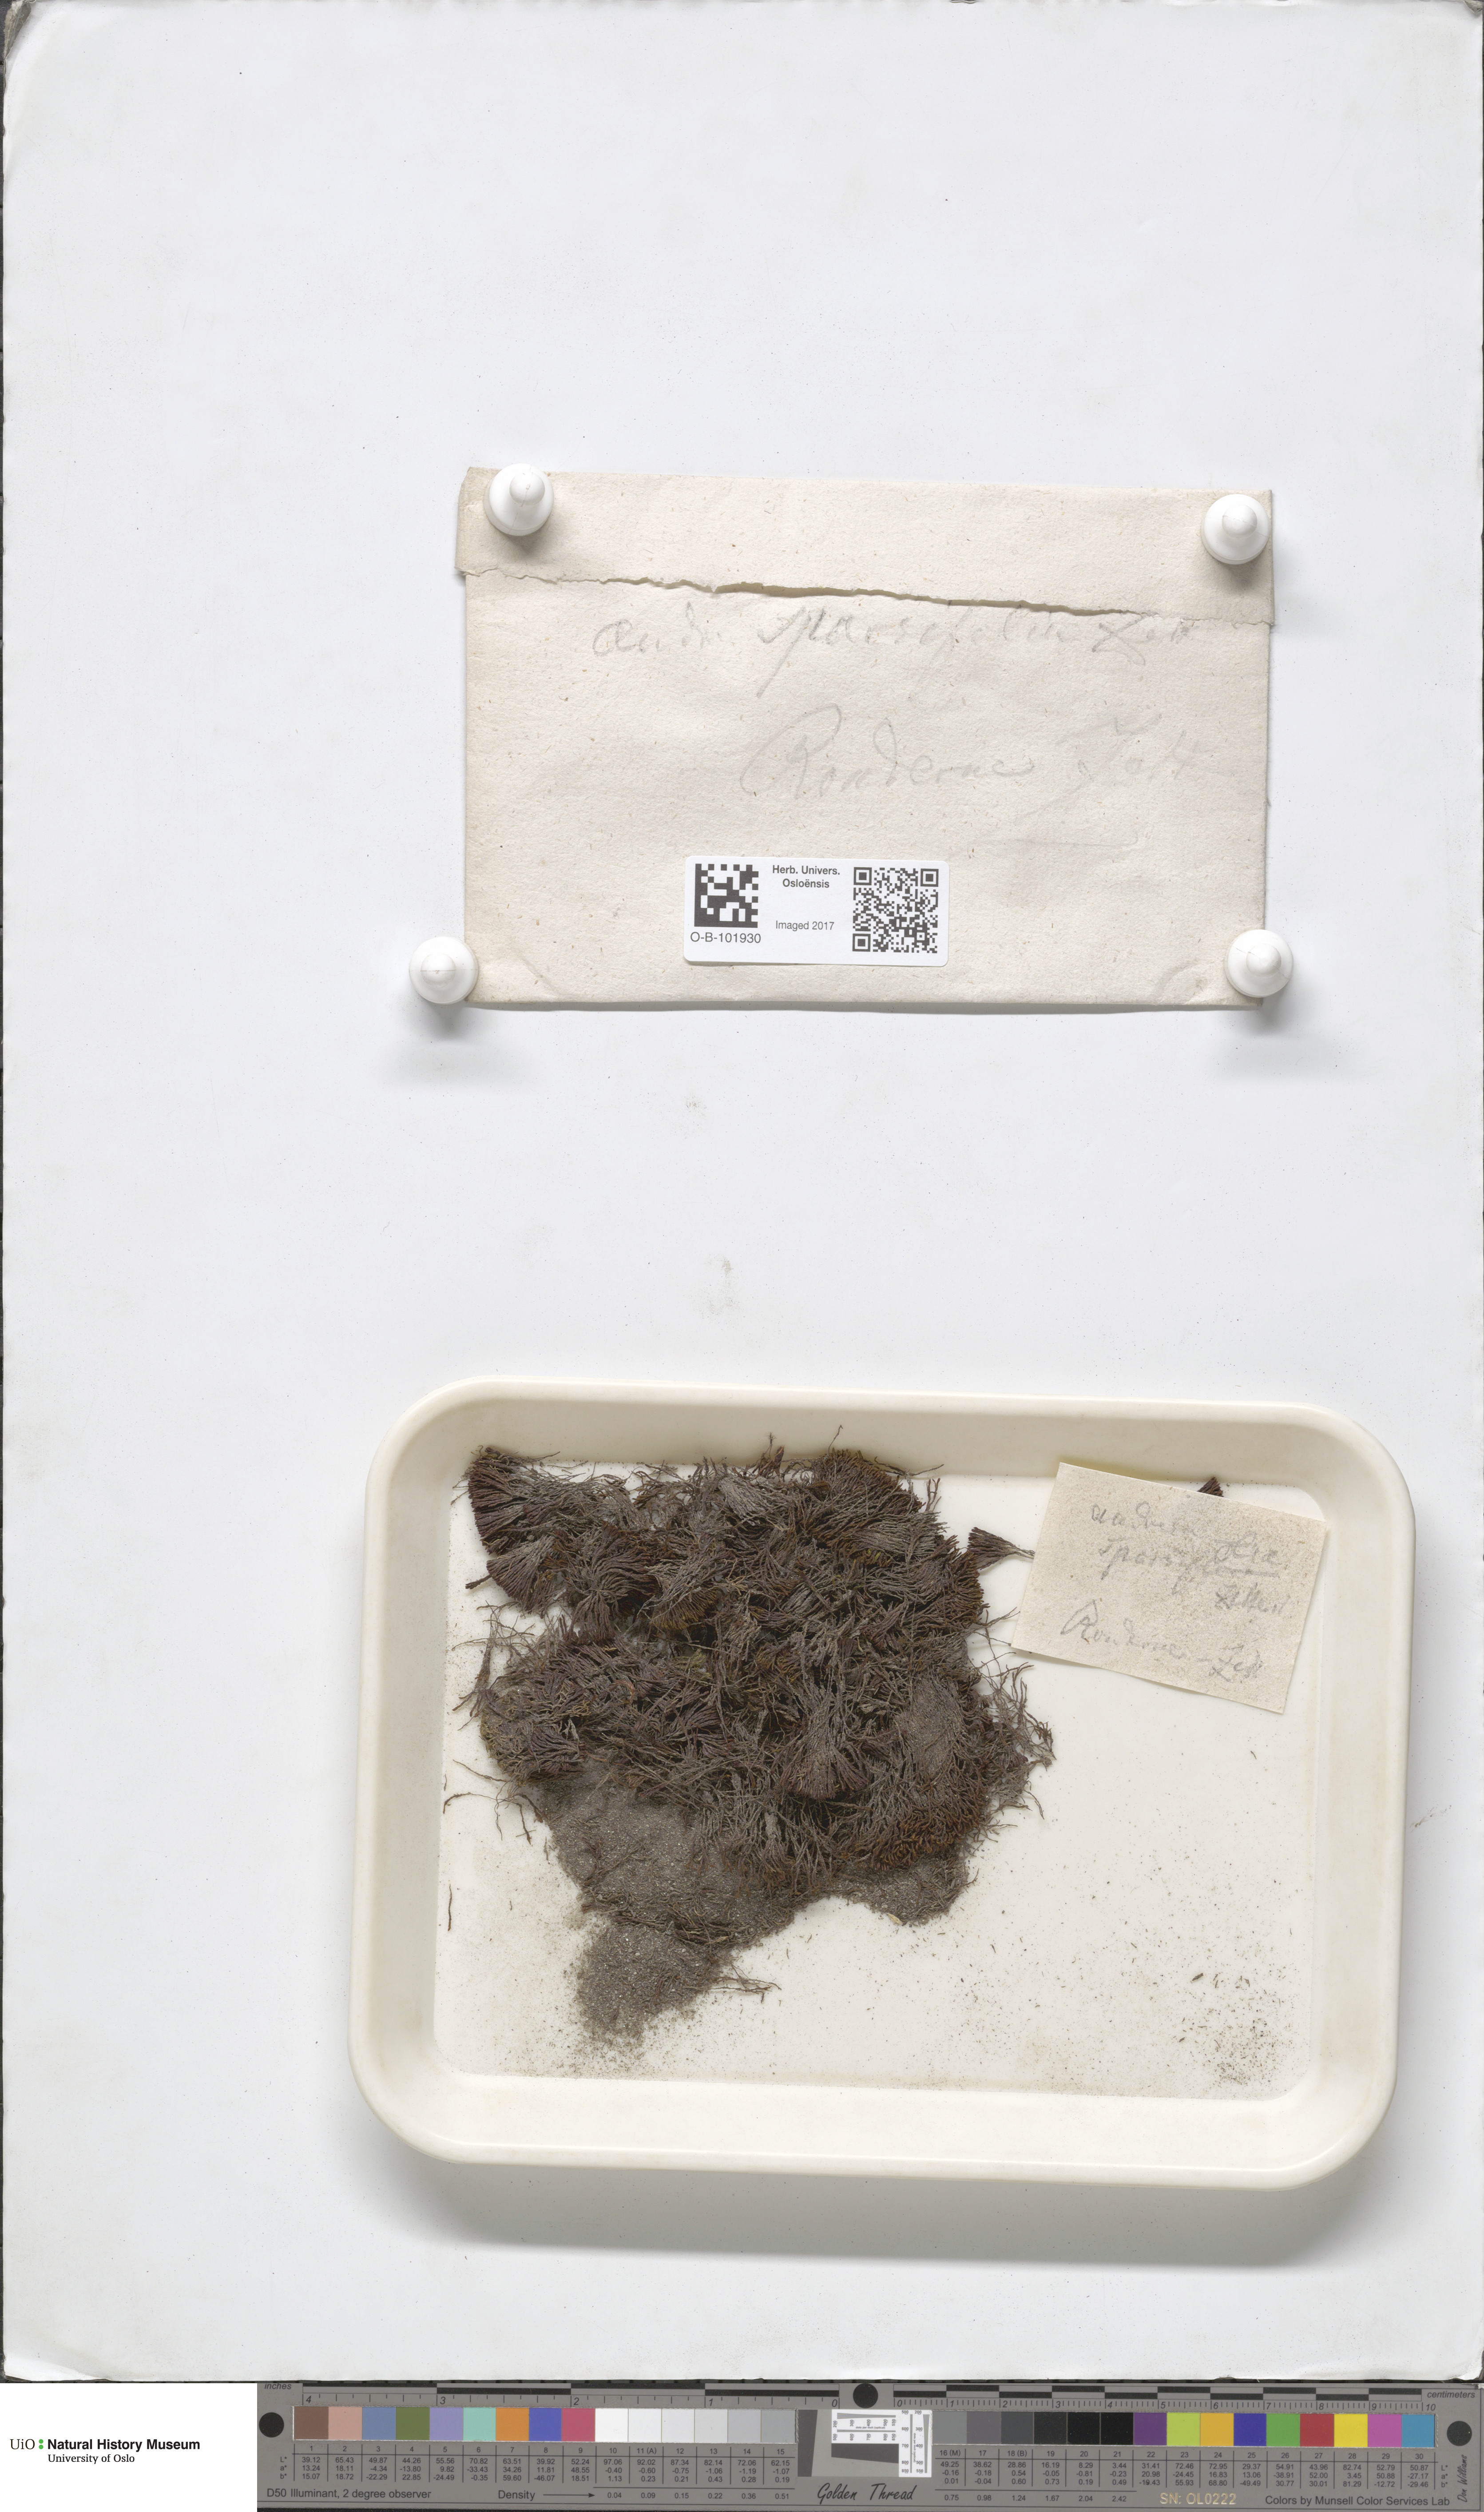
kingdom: Plantae
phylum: Bryophyta
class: Andreaeopsida
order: Andreaeales
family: Andreaeaceae
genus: Andreaea
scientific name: Andreaea rupestris
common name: Black rock moss
